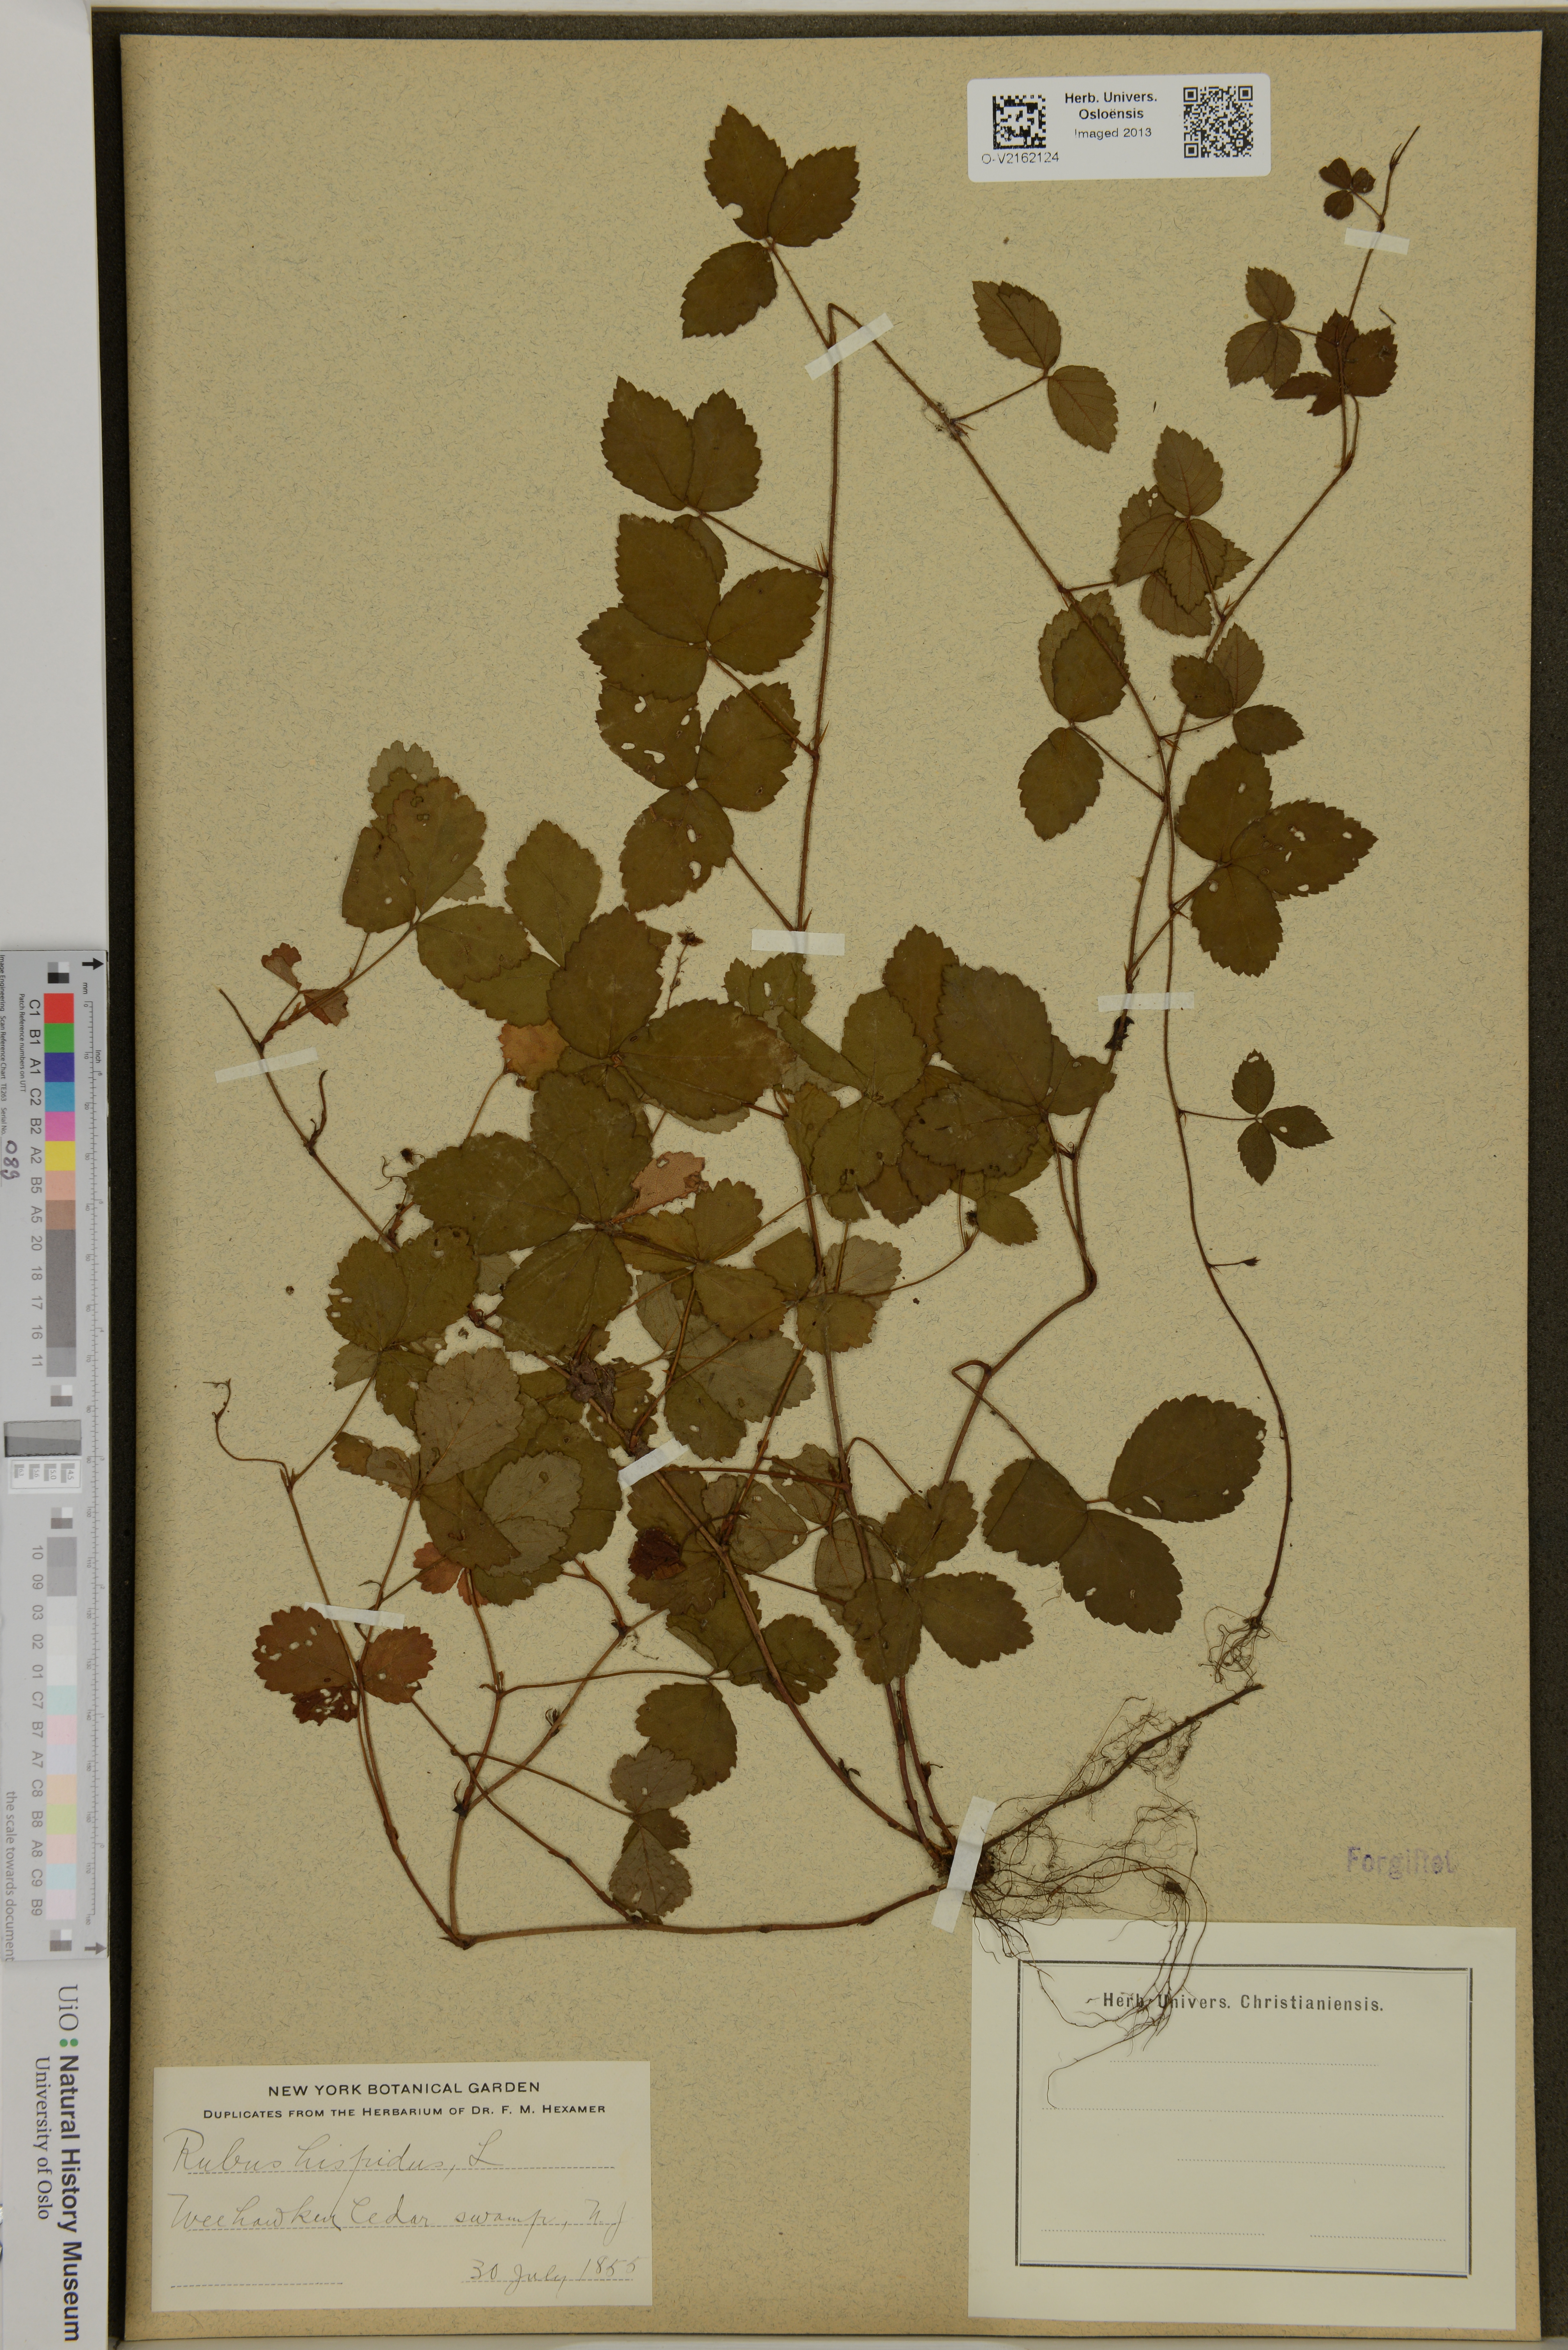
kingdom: Plantae
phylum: Tracheophyta
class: Magnoliopsida
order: Rosales
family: Rosaceae
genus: Rubus
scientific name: Rubus hispidus
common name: Running blackberry
